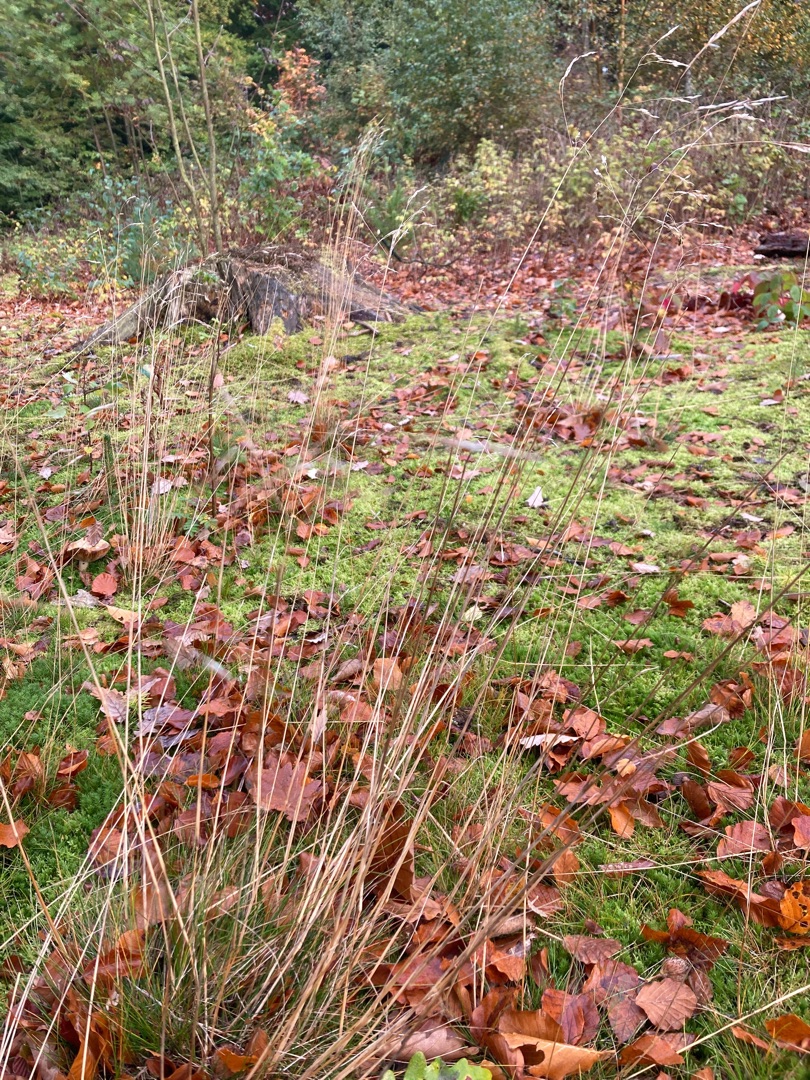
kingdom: Plantae
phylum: Tracheophyta
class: Liliopsida
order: Poales
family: Poaceae
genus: Avenella
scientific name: Avenella flexuosa
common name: Bølget bunke
